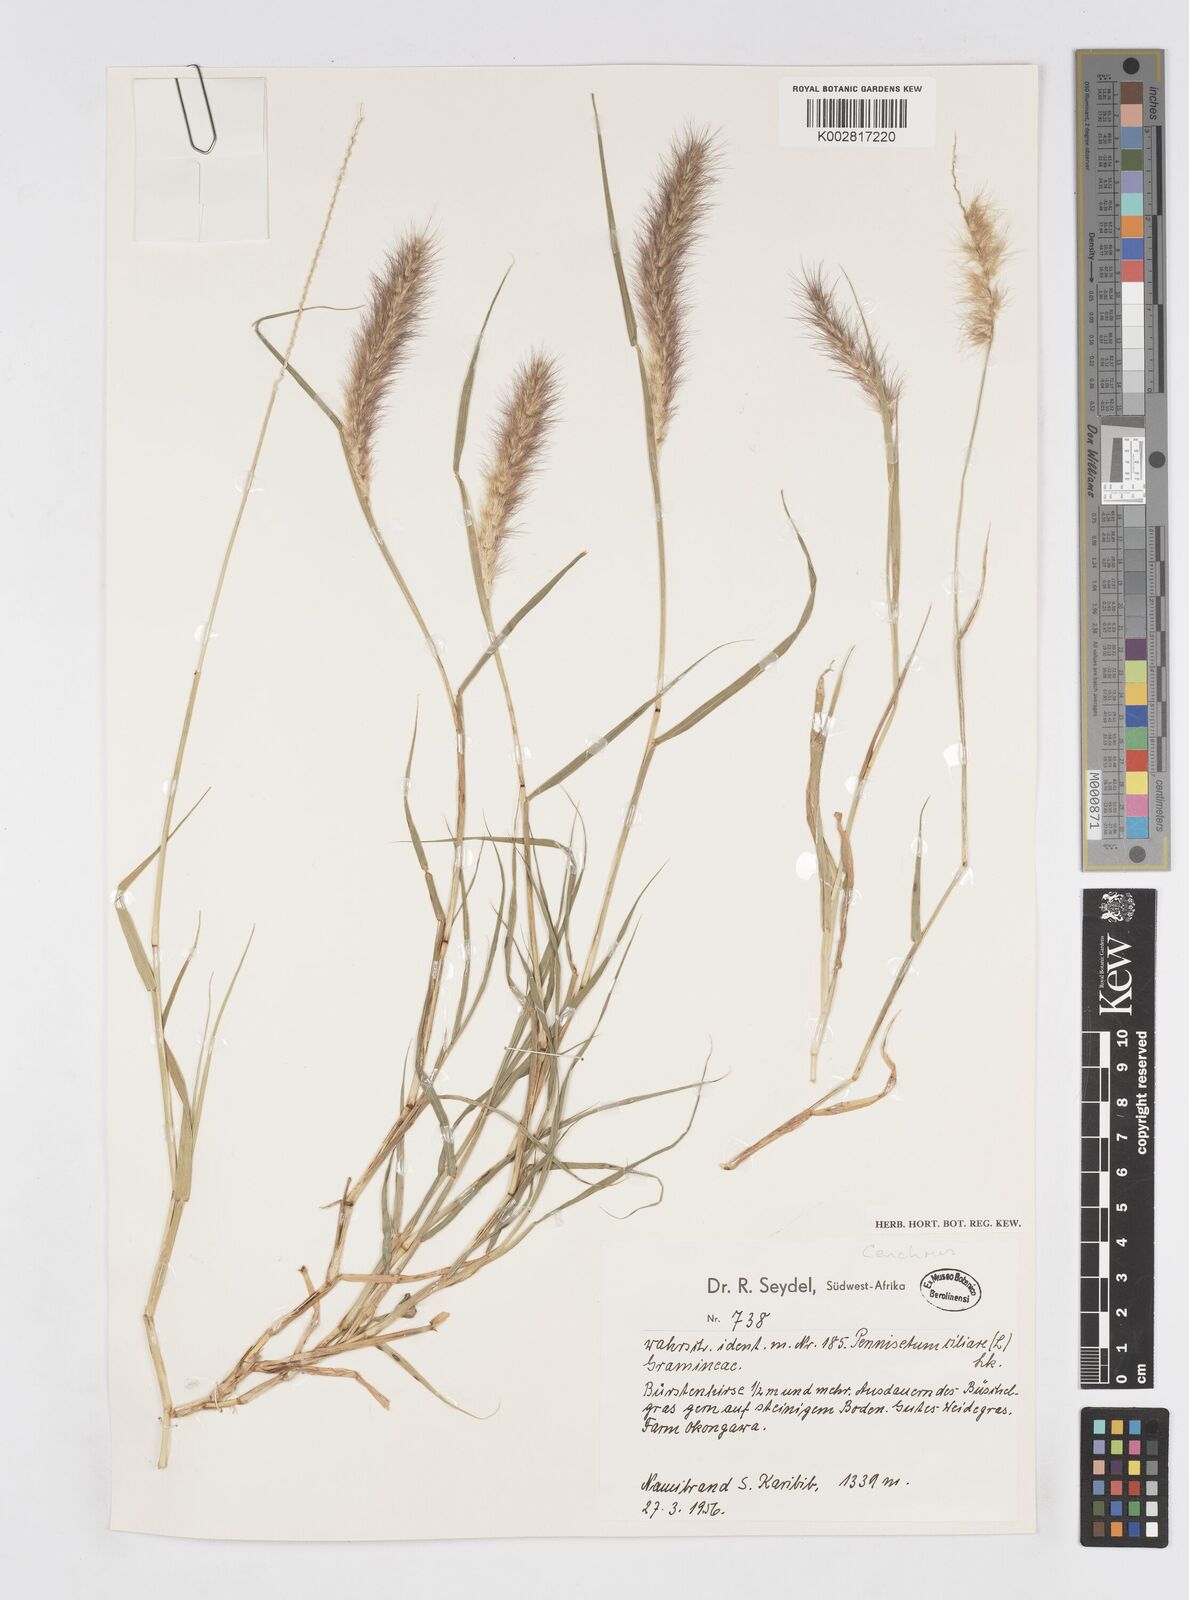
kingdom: Plantae
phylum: Tracheophyta
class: Liliopsida
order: Poales
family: Poaceae
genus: Cenchrus
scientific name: Cenchrus ciliaris
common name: Buffelgrass
